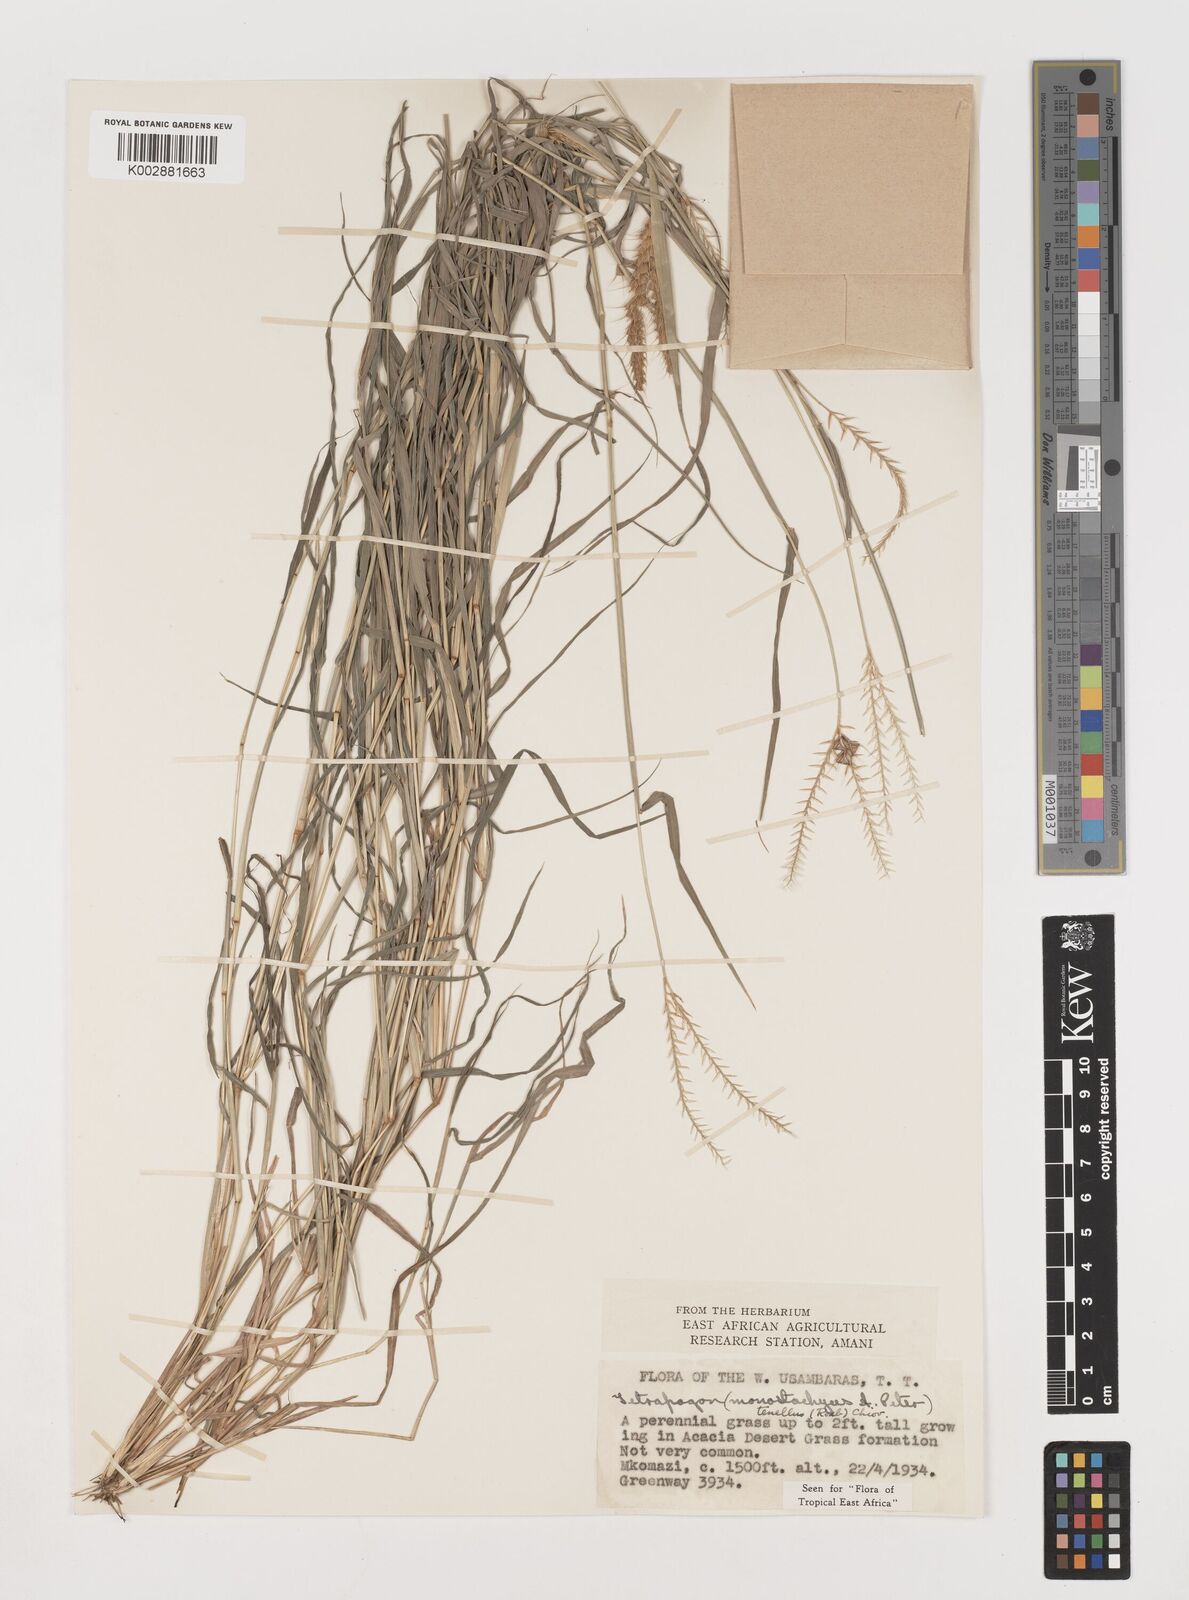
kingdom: Plantae
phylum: Tracheophyta
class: Liliopsida
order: Poales
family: Poaceae
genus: Tetrapogon
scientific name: Tetrapogon tenellus
